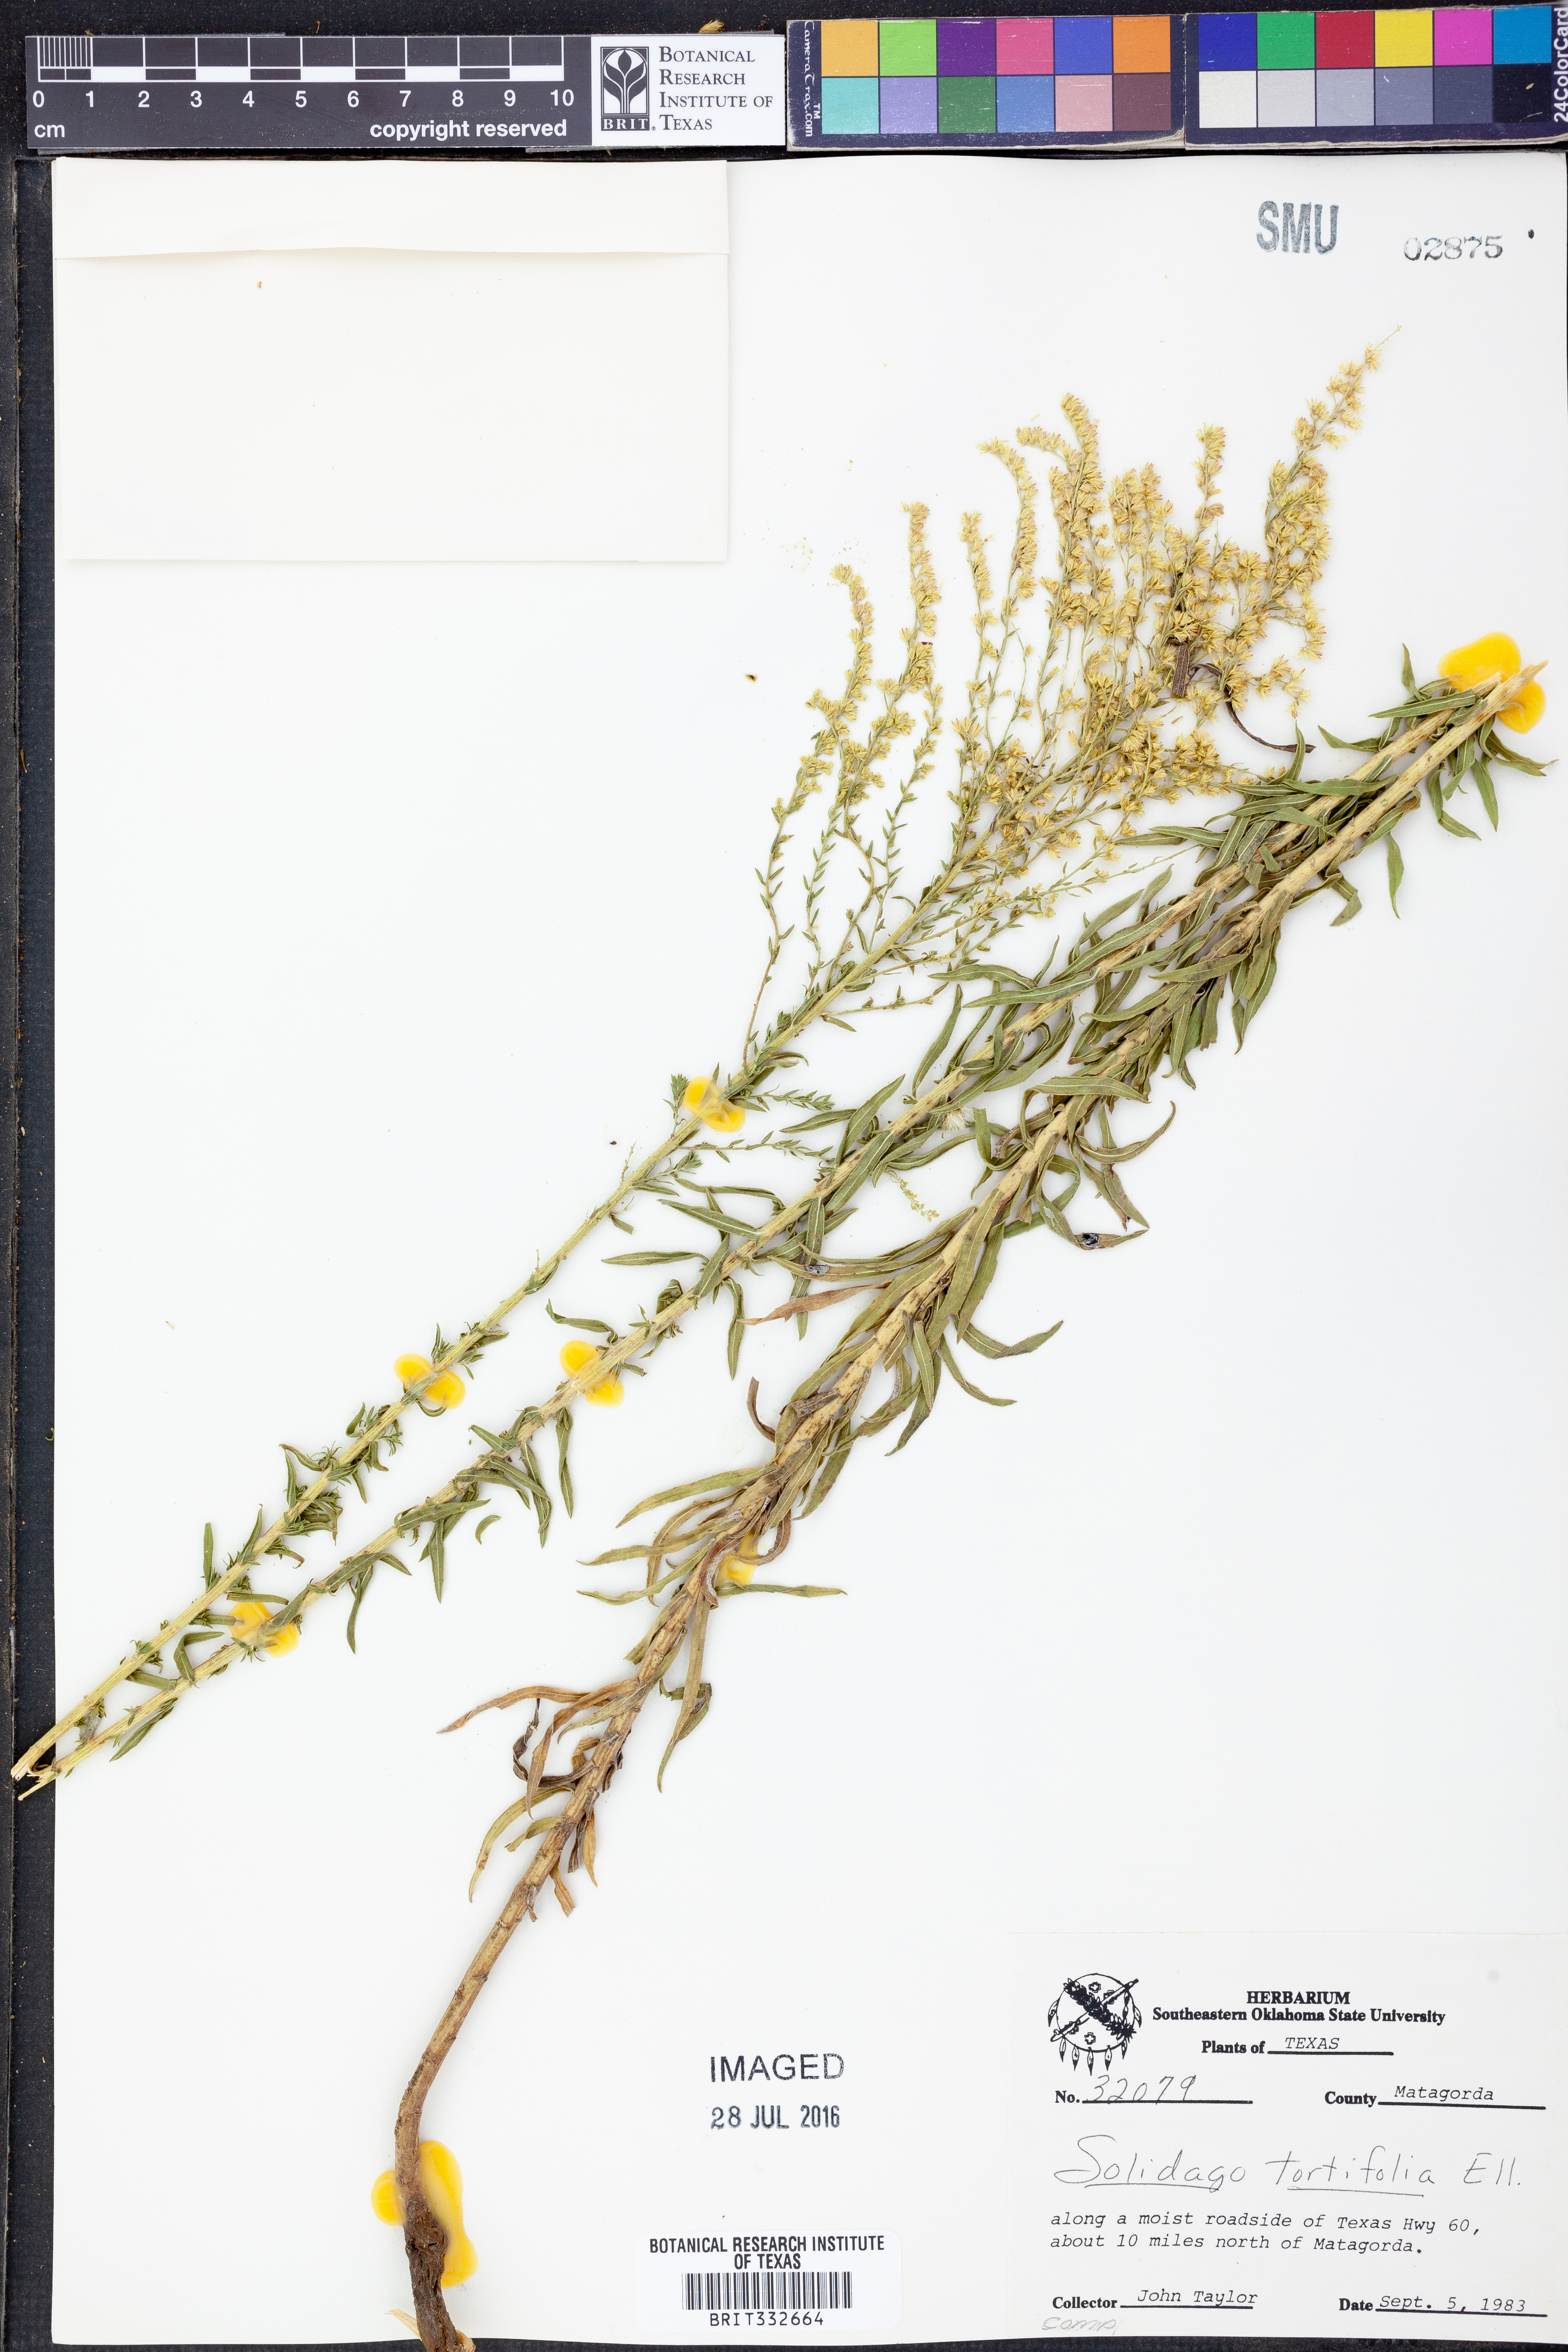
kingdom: Plantae
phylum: Tracheophyta
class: Magnoliopsida
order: Asterales
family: Asteraceae
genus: Solidago
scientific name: Solidago tortifolia
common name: Twisted-leaf goldenrod
